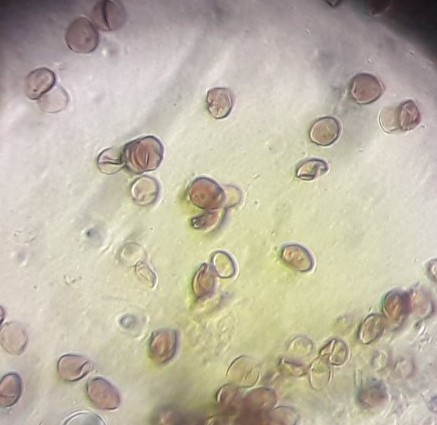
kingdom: Fungi
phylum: Basidiomycota
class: Agaricomycetes
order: Agaricales
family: Psathyrellaceae
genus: Parasola
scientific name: Parasola misera
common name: lillebitte hjulhat
